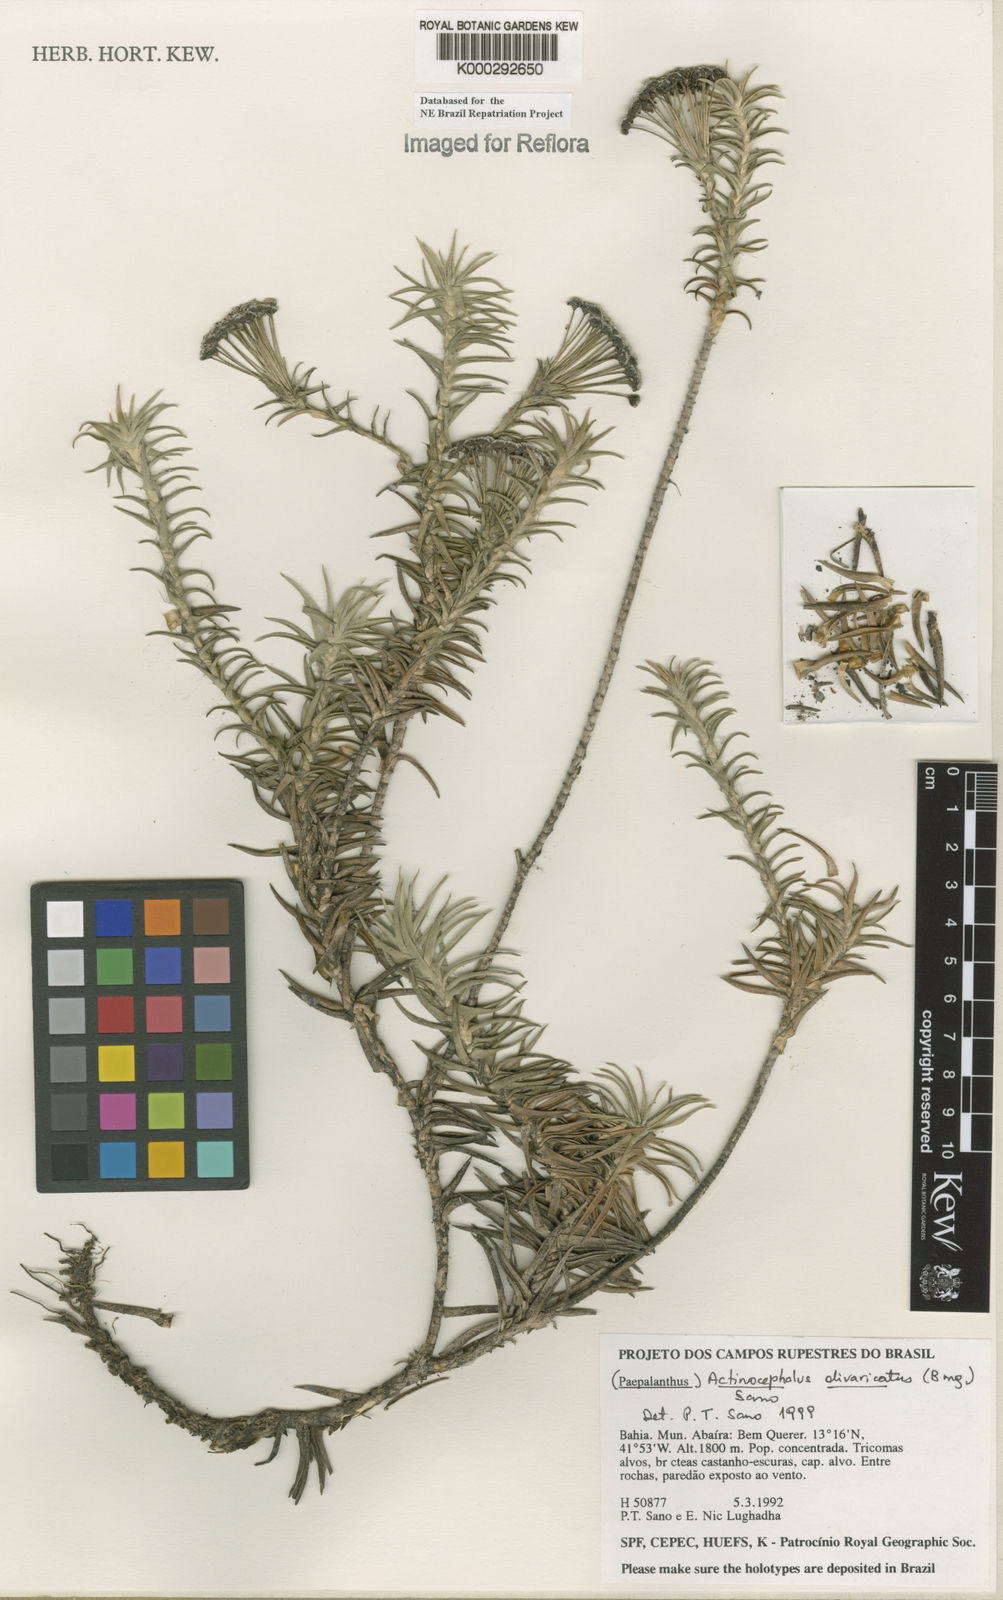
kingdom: Plantae
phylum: Tracheophyta
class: Liliopsida
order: Poales
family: Eriocaulaceae
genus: Paepalanthus
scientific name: Paepalanthus divaricatus
